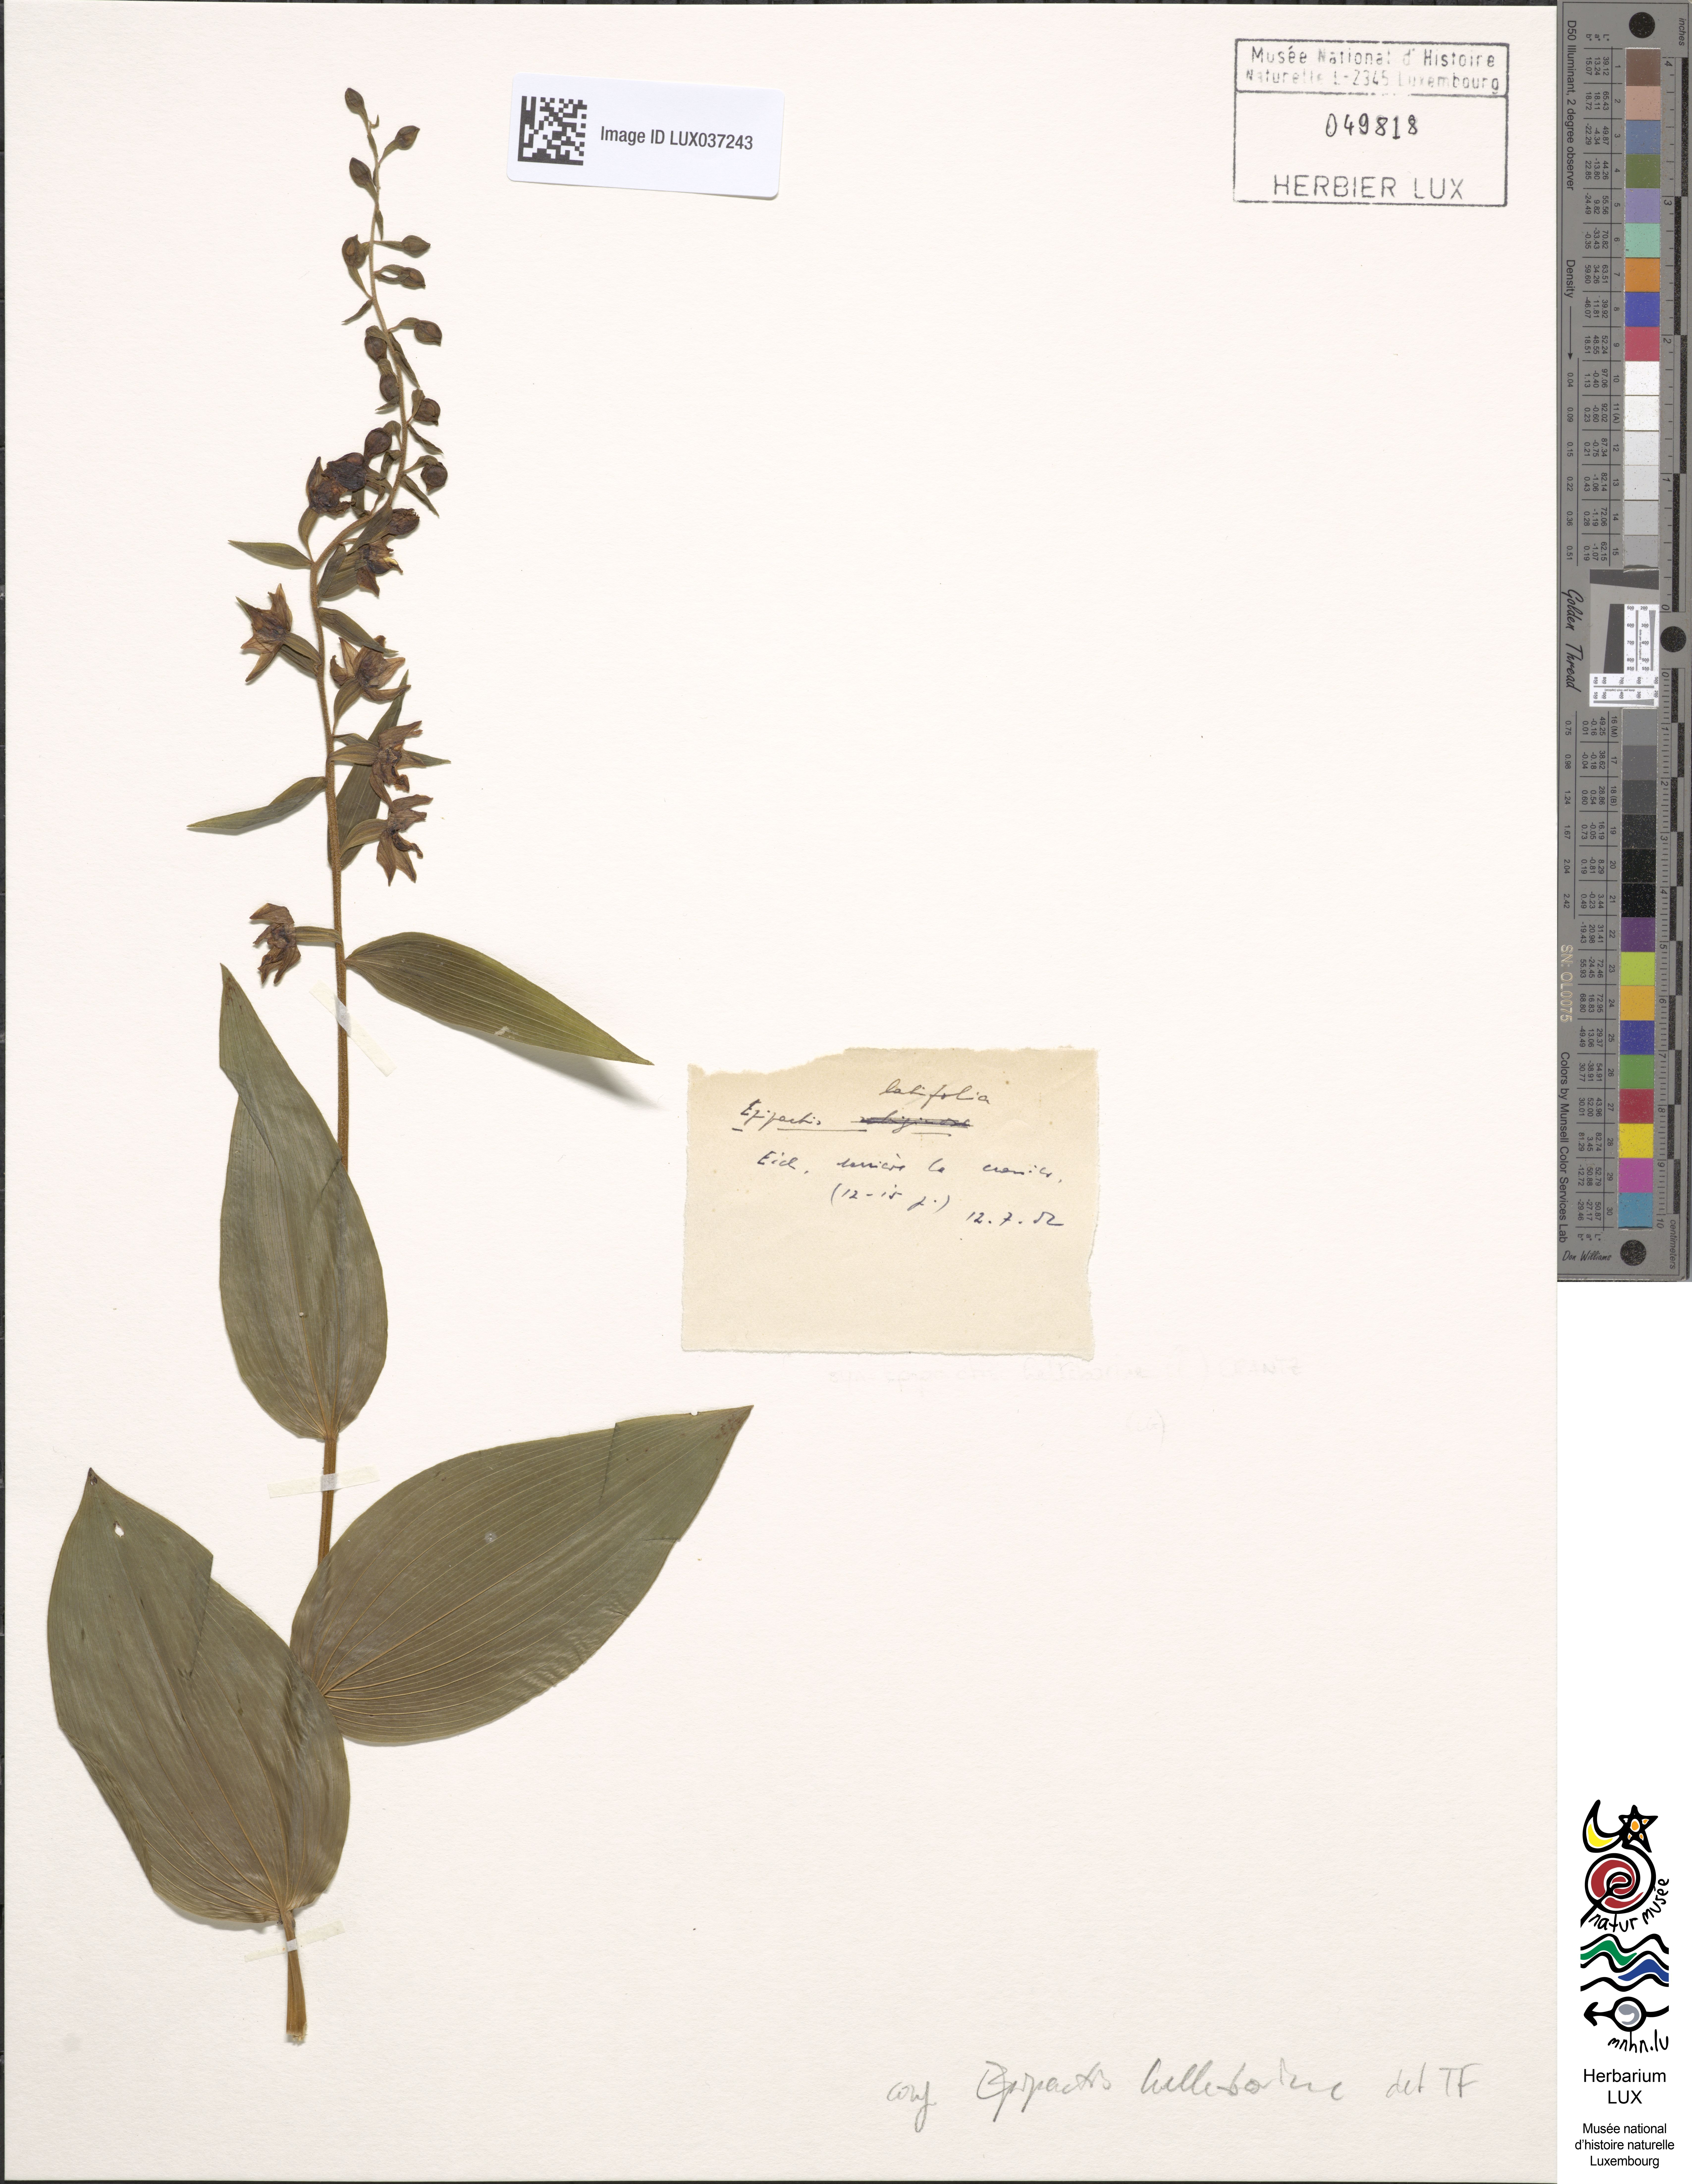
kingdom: Plantae
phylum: Tracheophyta
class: Liliopsida
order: Asparagales
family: Orchidaceae
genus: Epipactis
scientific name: Epipactis helleborine
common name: Broad-leaved helleborine
